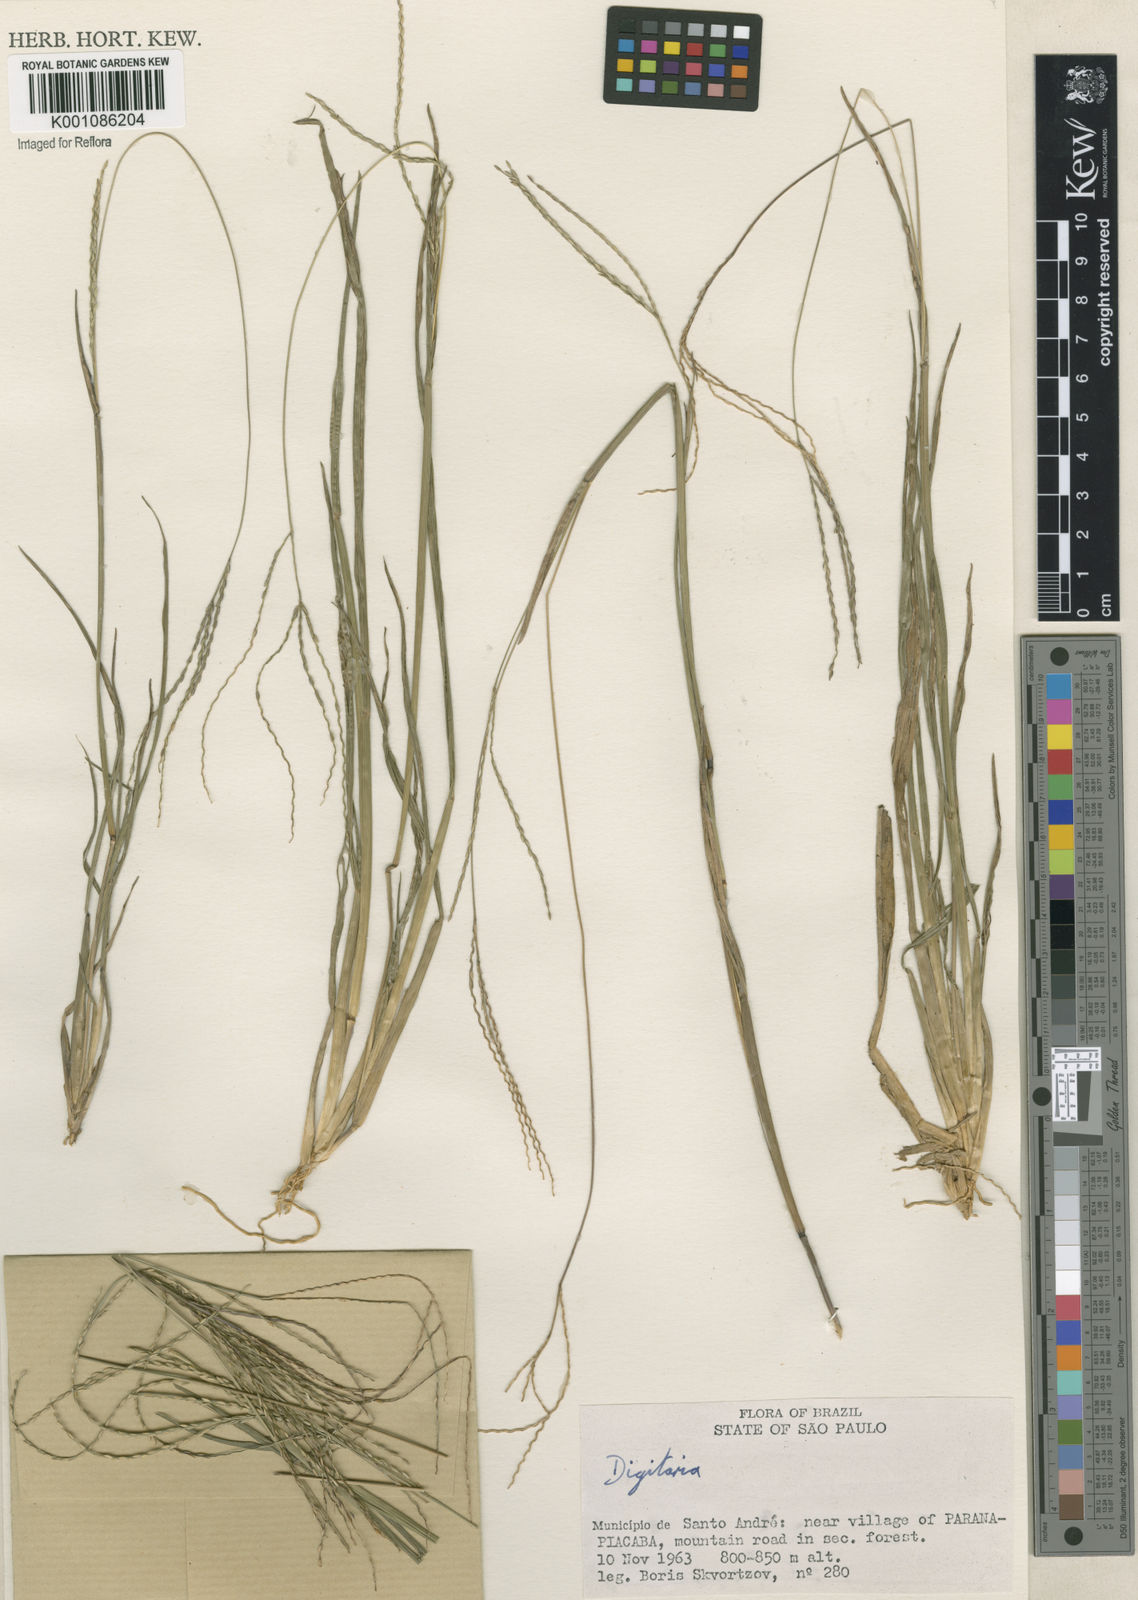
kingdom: Plantae
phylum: Tracheophyta
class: Liliopsida
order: Poales
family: Poaceae
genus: Axonopus
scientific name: Axonopus
